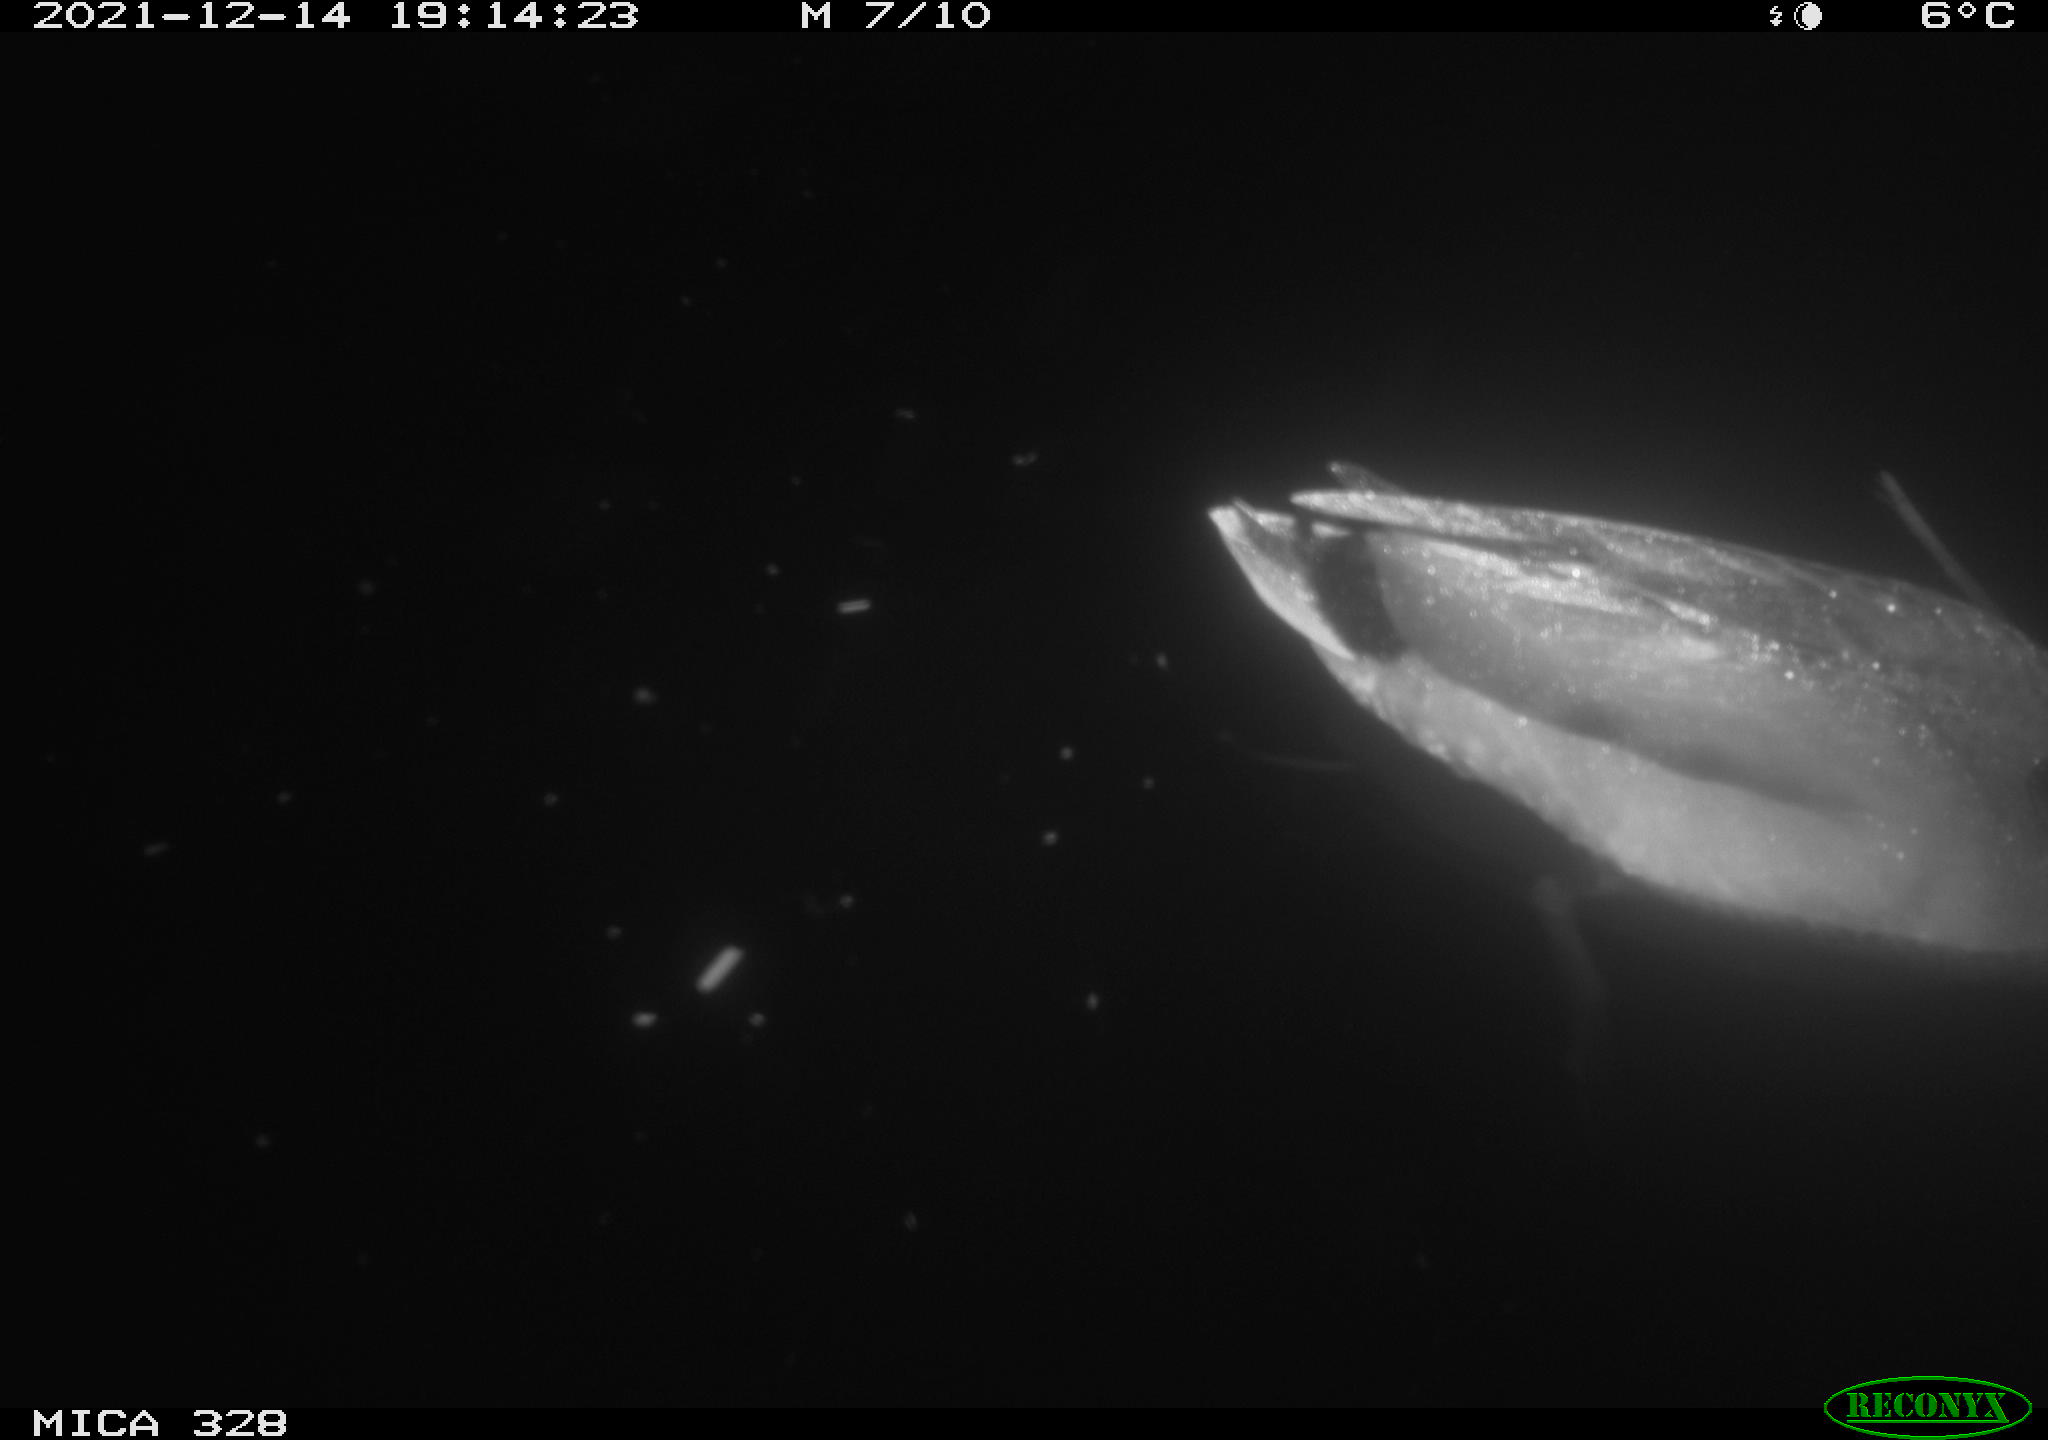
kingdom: Animalia
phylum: Chordata
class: Aves
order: Anseriformes
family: Anatidae
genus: Anas
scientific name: Anas platyrhynchos
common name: Mallard
